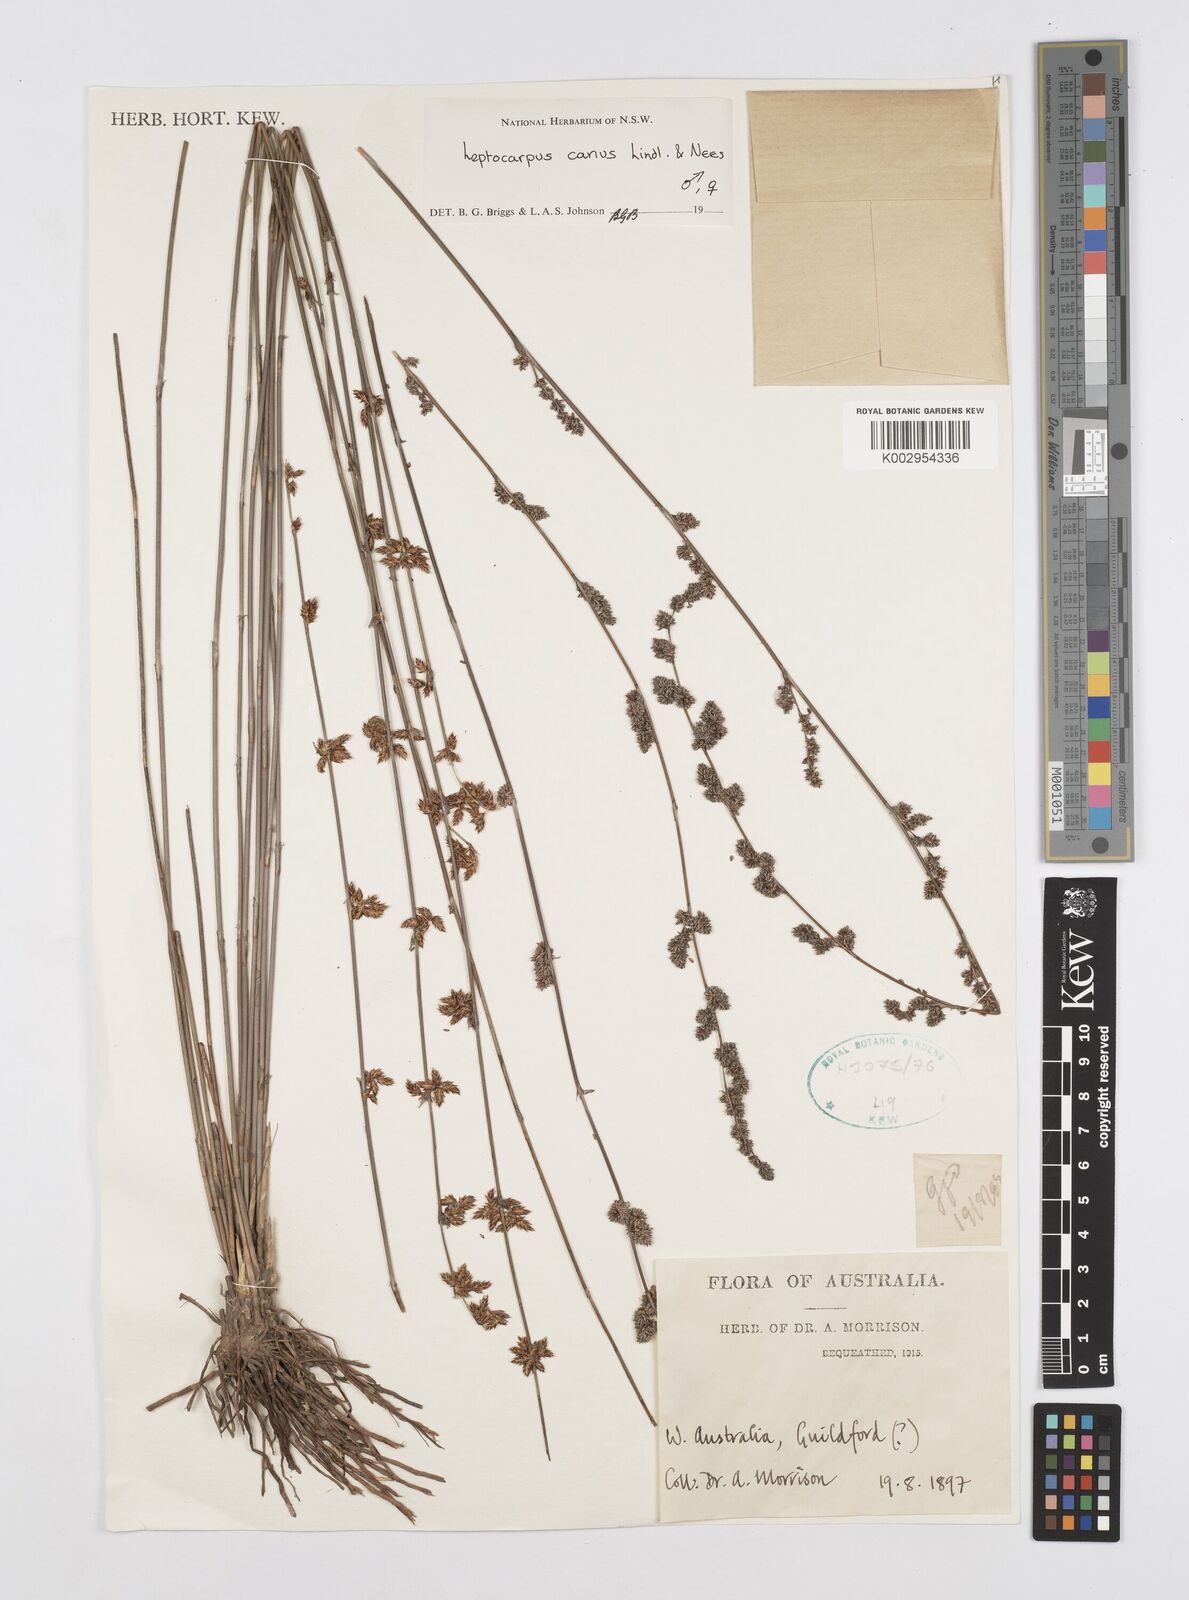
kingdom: Plantae
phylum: Tracheophyta
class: Liliopsida
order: Poales
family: Restionaceae
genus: Leptocarpus
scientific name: Leptocarpus canus
